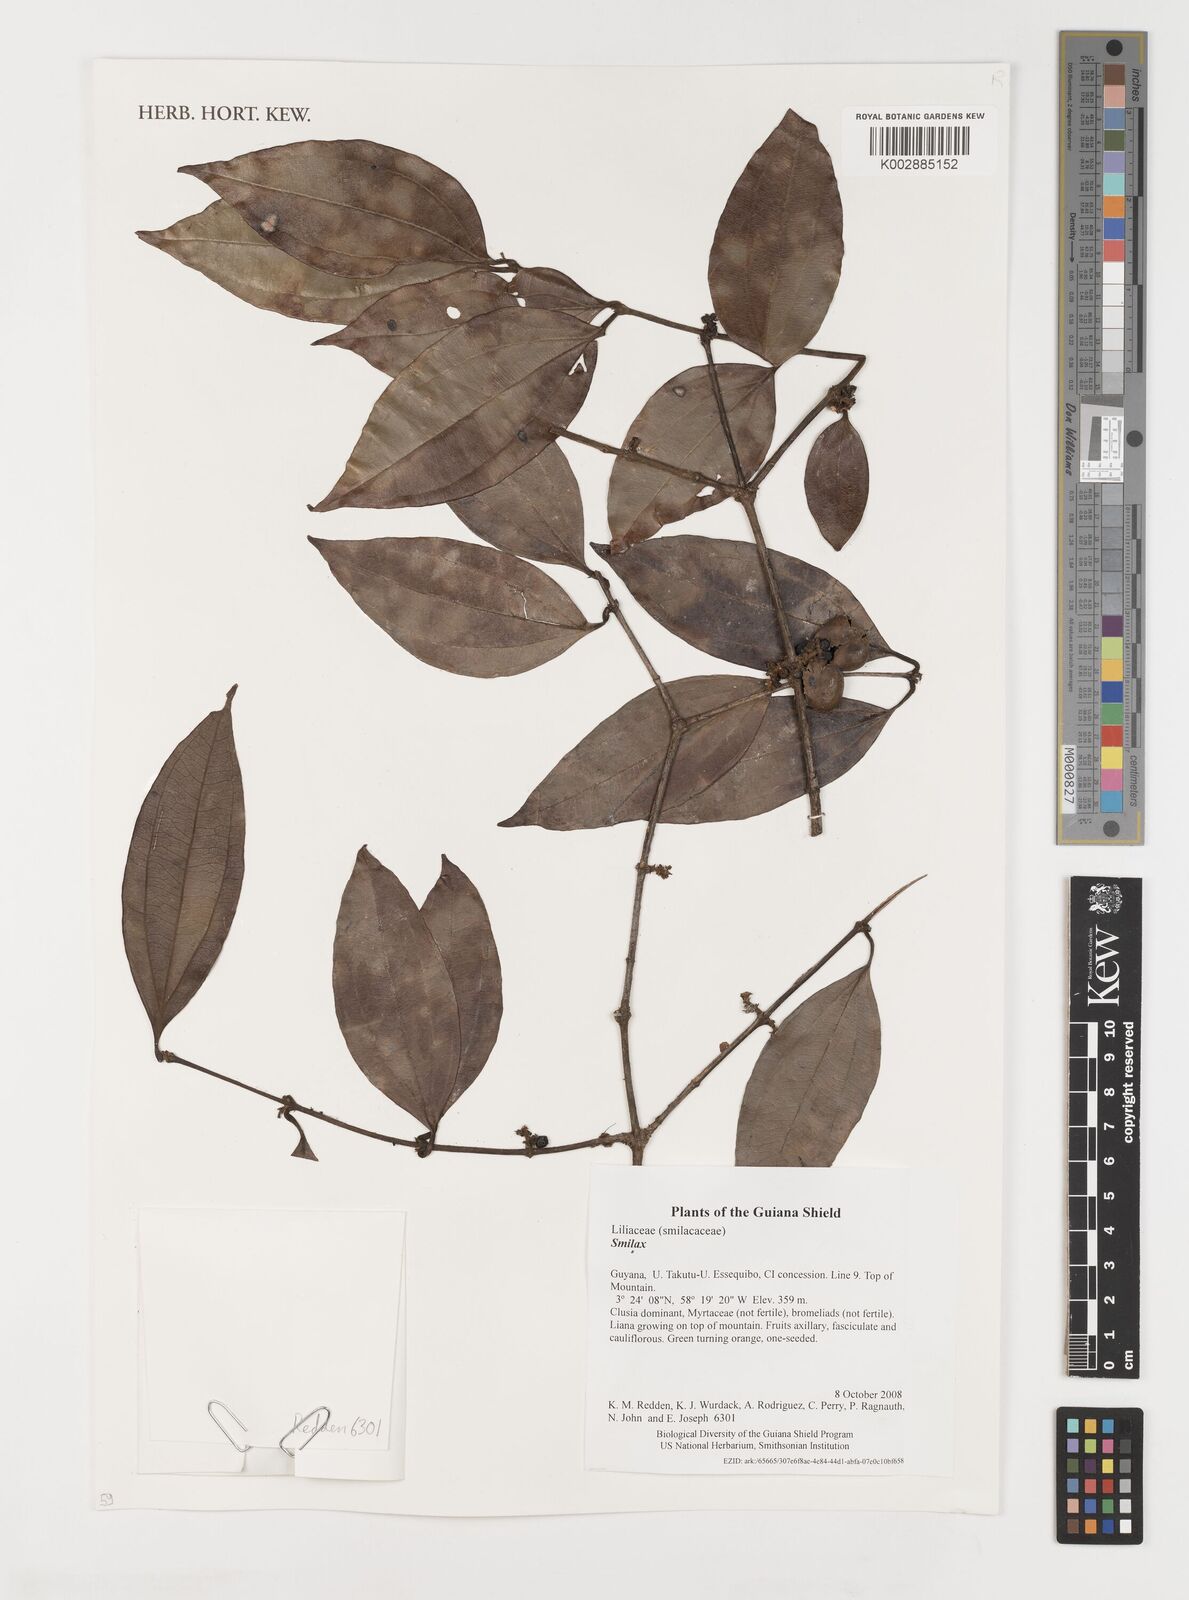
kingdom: Plantae
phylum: Tracheophyta
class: Liliopsida
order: Liliales
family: Smilacaceae
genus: Smilax
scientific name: Smilax
